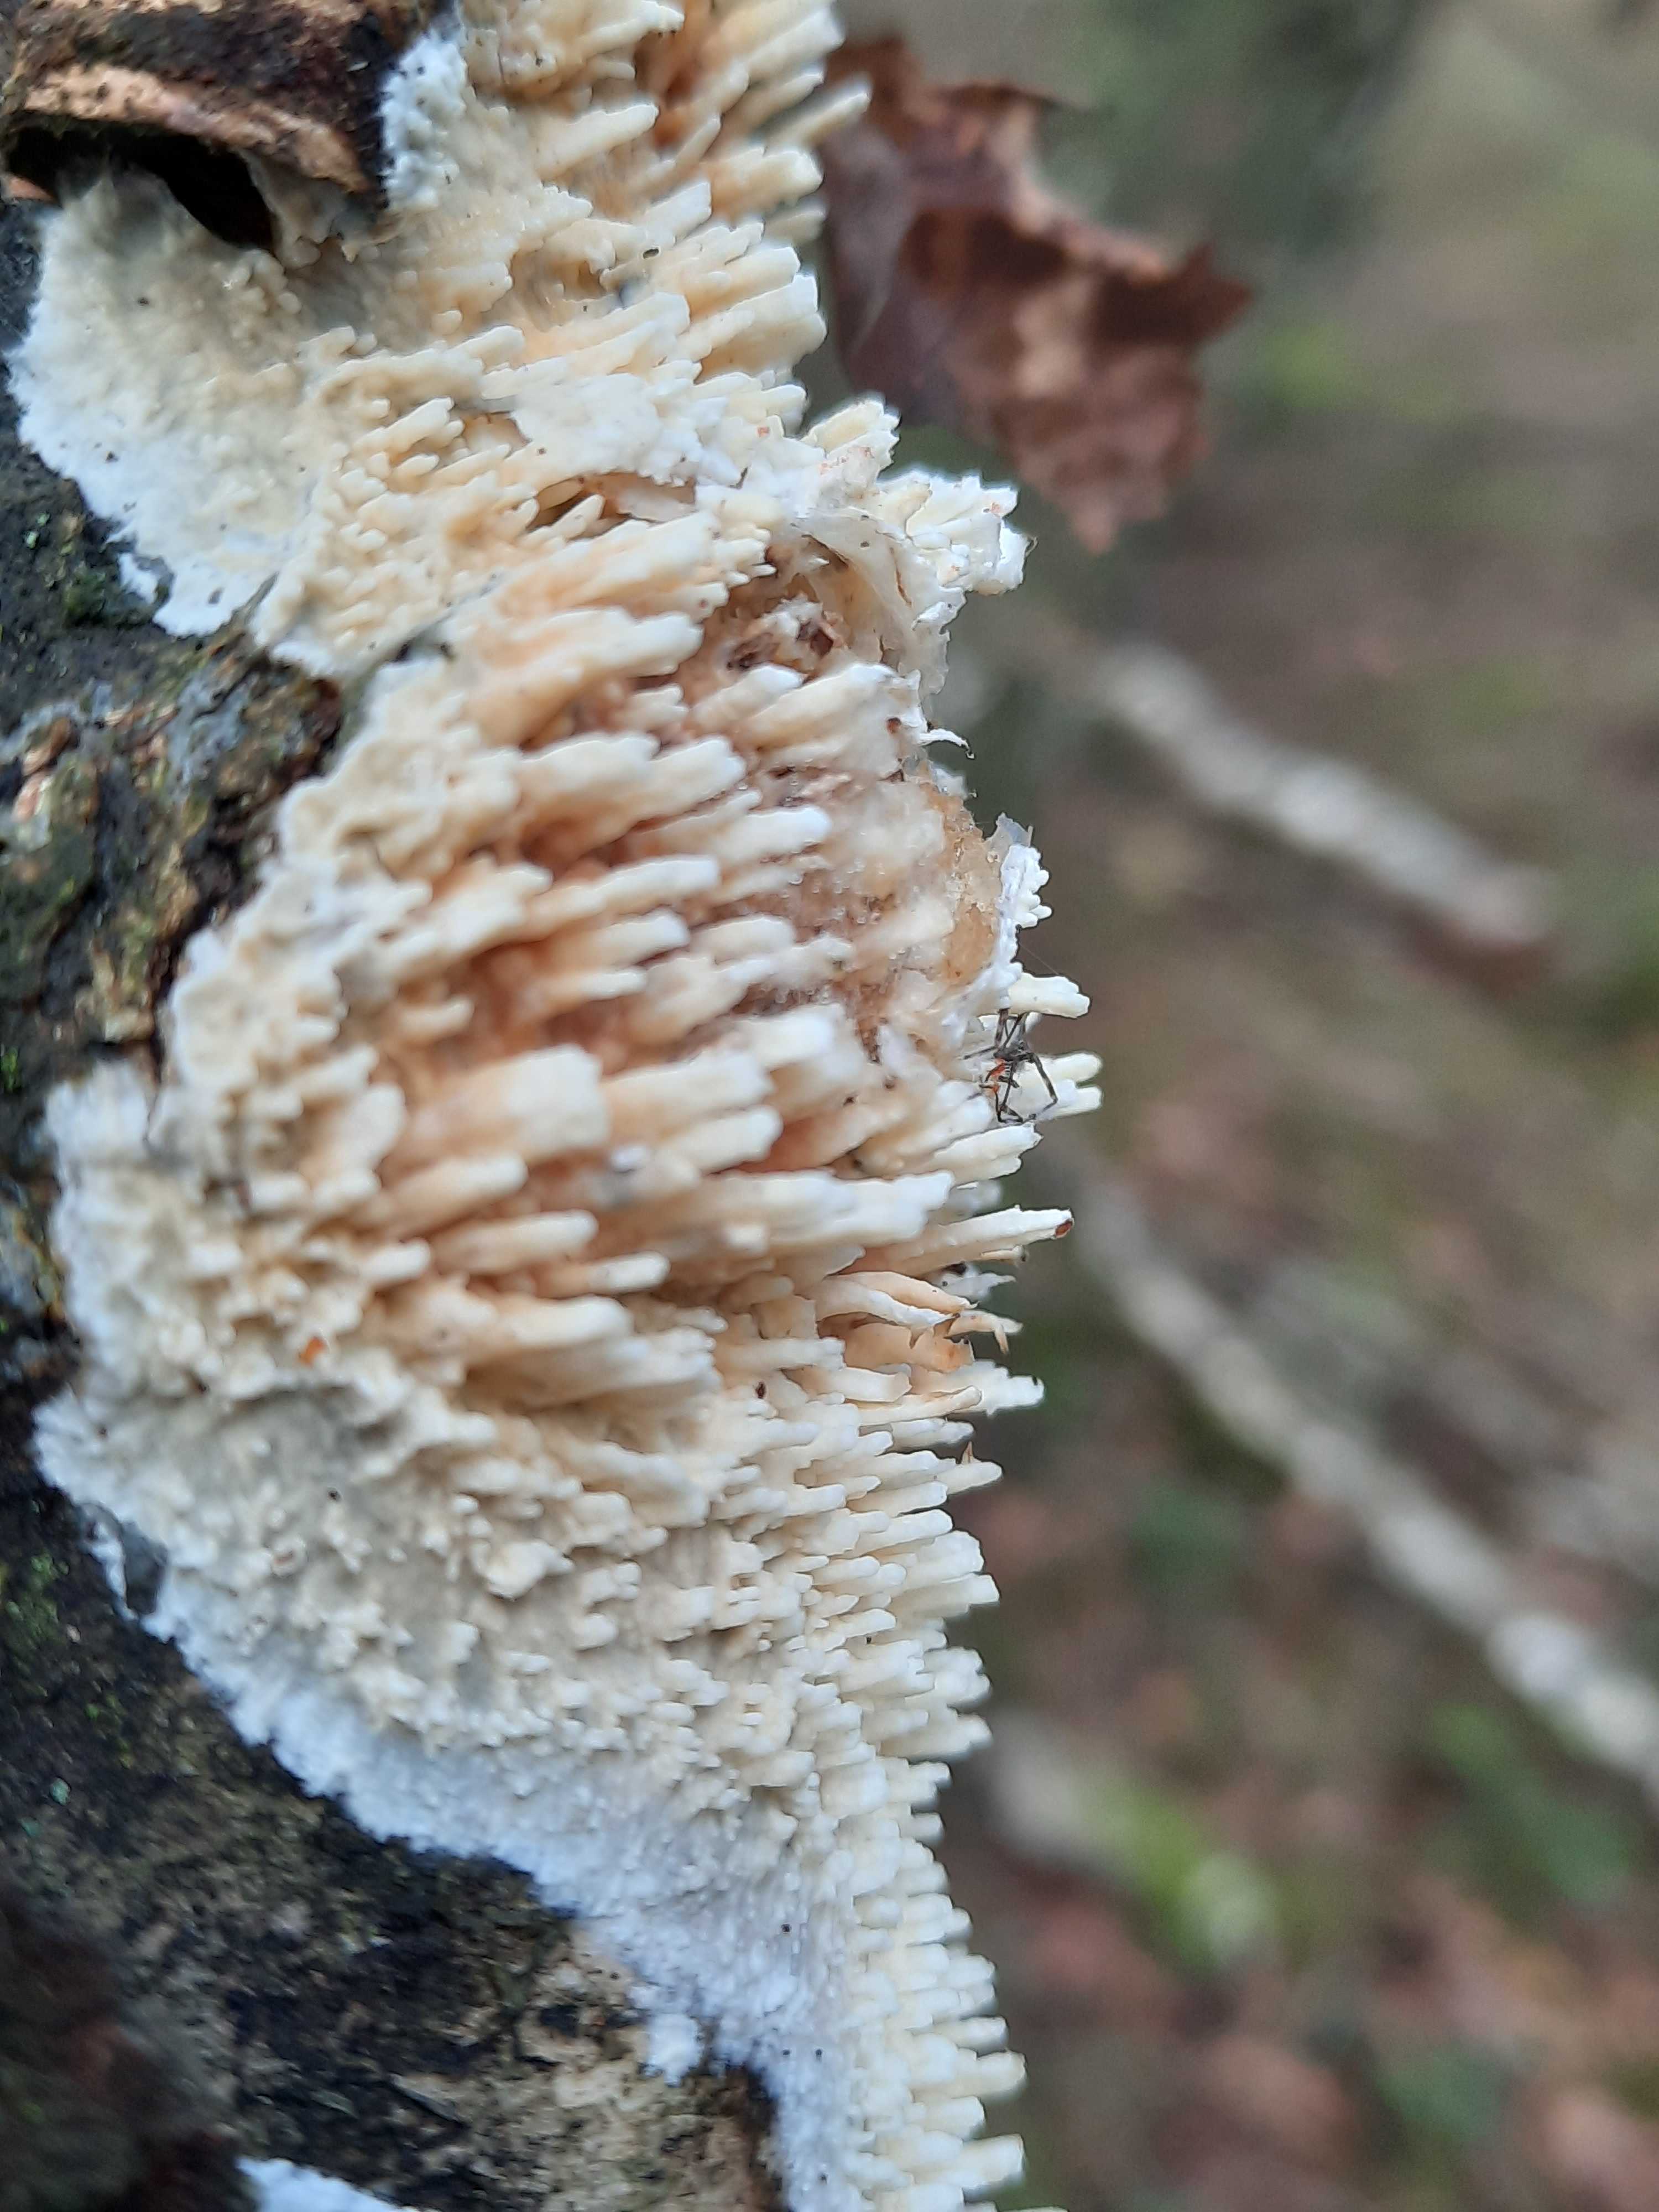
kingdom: Fungi
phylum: Basidiomycota
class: Agaricomycetes
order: Hymenochaetales
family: Schizoporaceae
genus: Xylodon
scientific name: Xylodon radula
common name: grovtandet kalkskind
